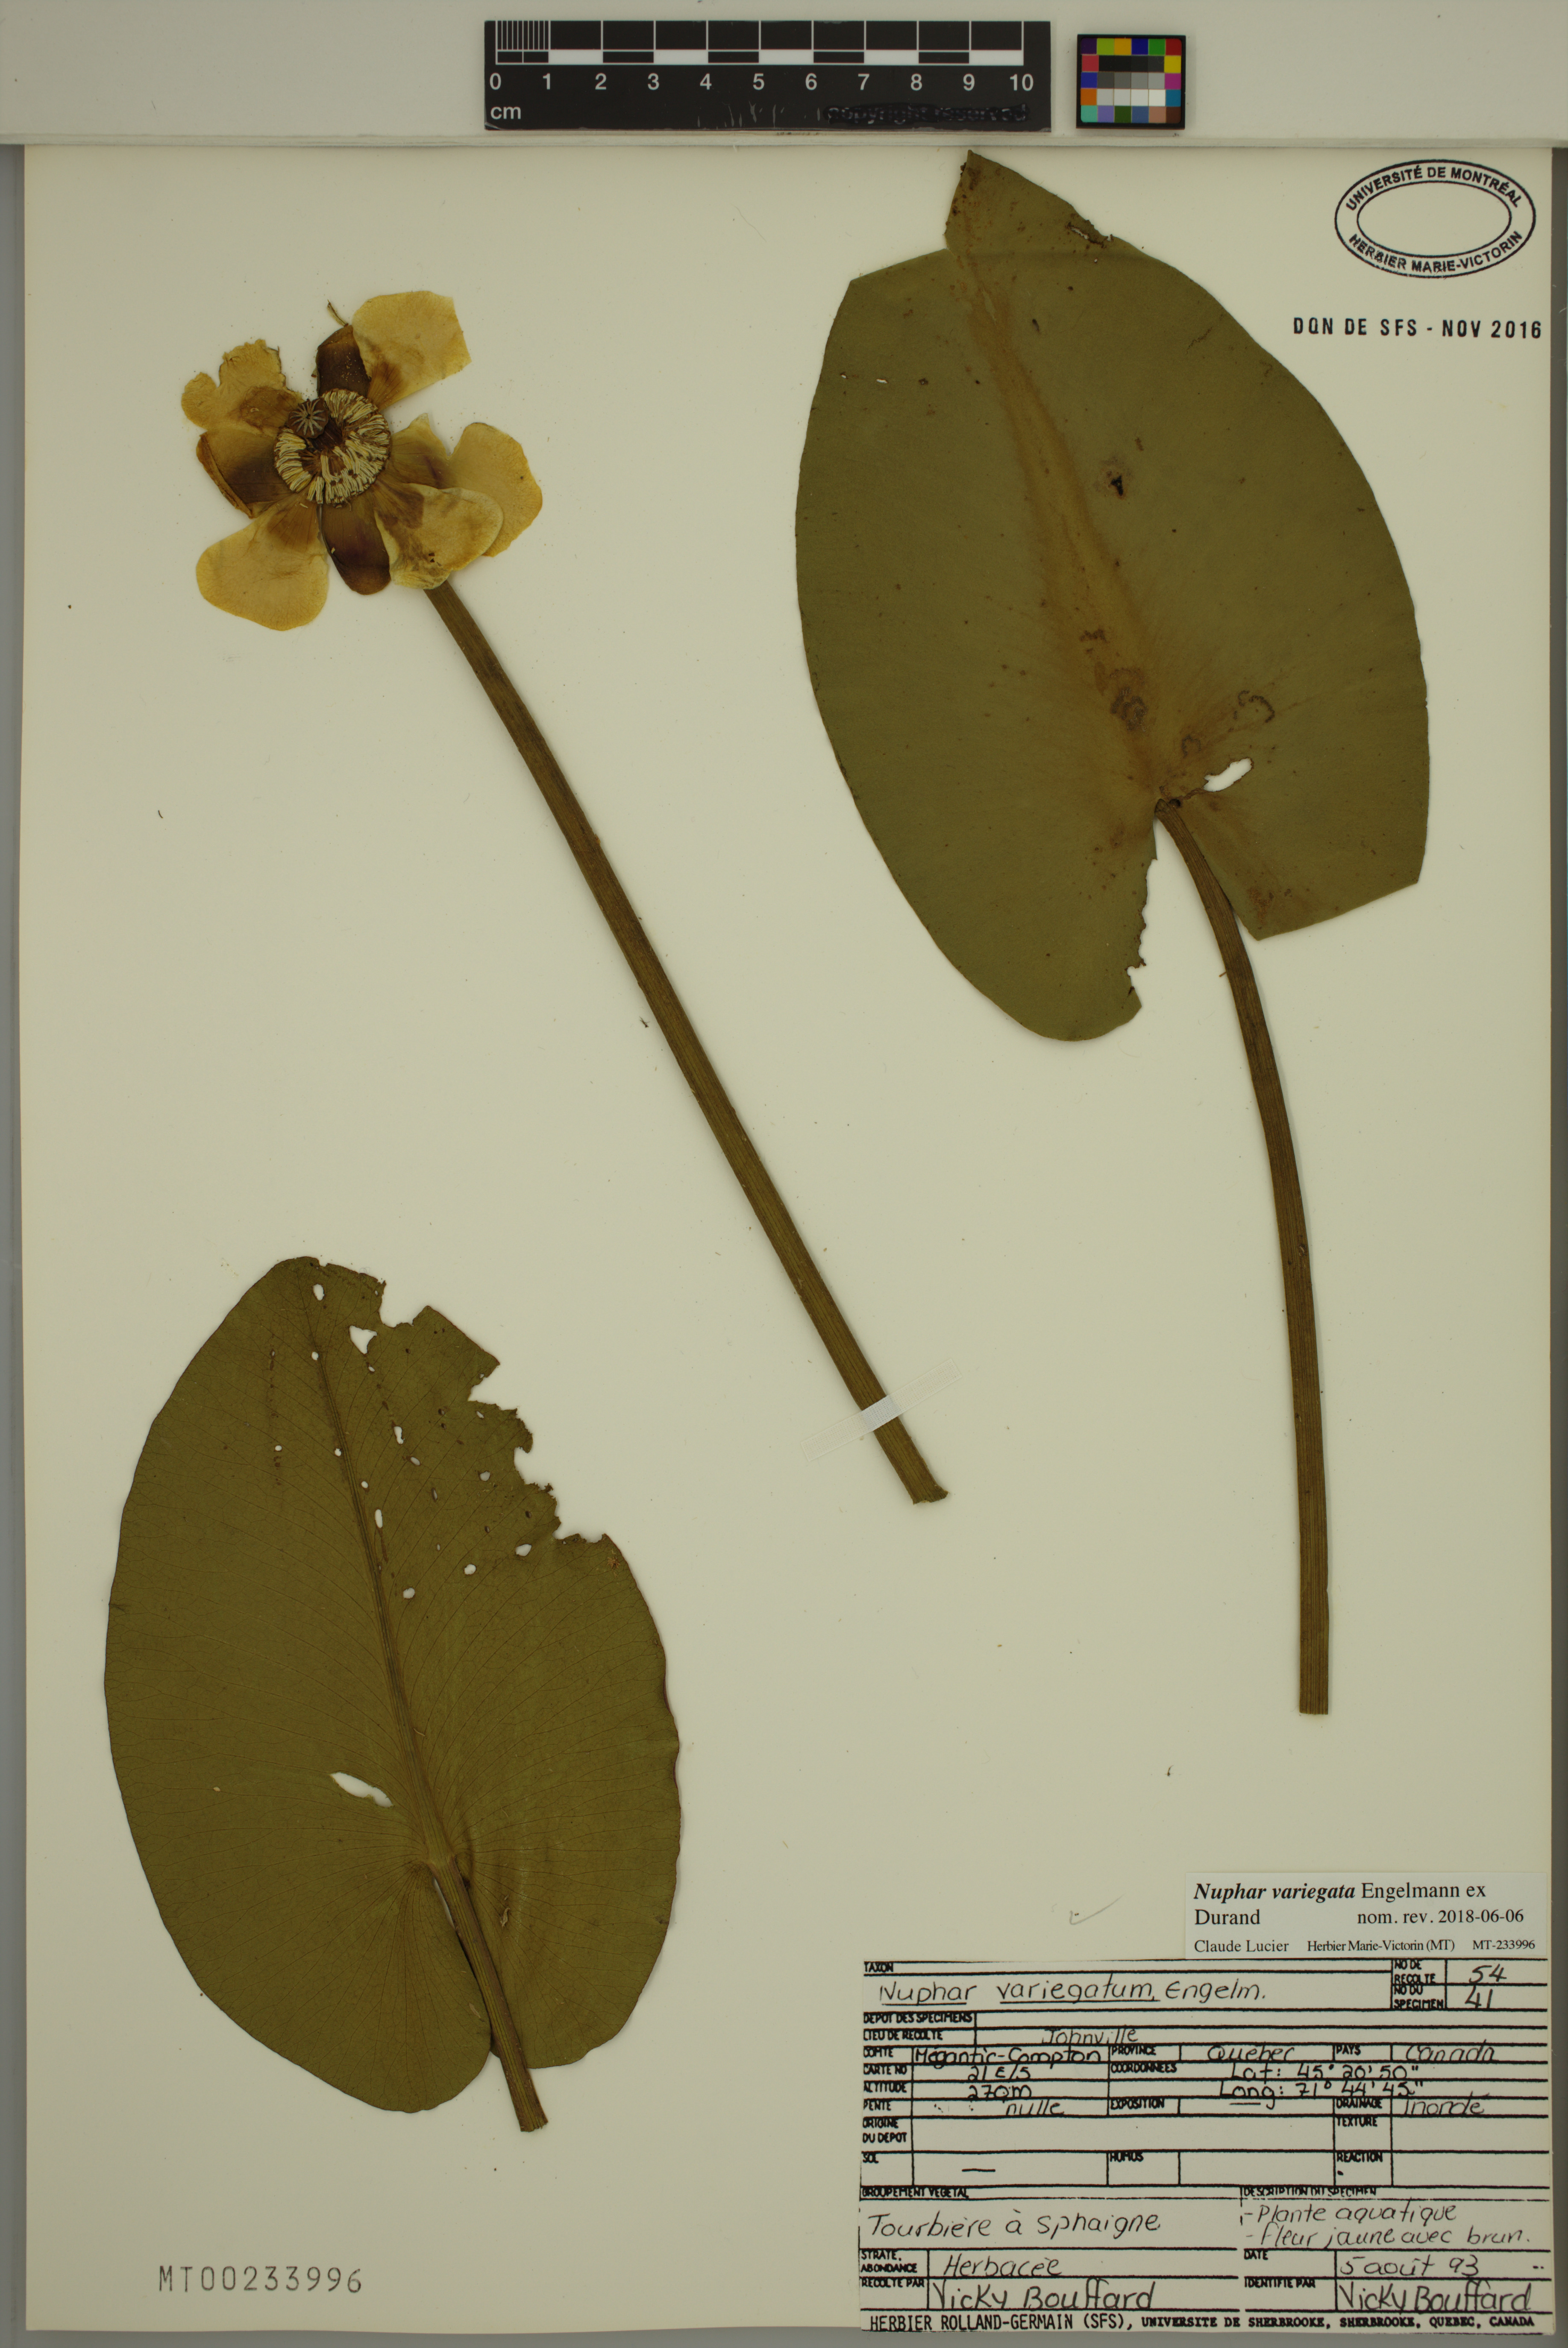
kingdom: Plantae
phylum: Tracheophyta
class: Magnoliopsida
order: Nymphaeales
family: Nymphaeaceae
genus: Nuphar
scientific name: Nuphar variegata
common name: Beaver-root
